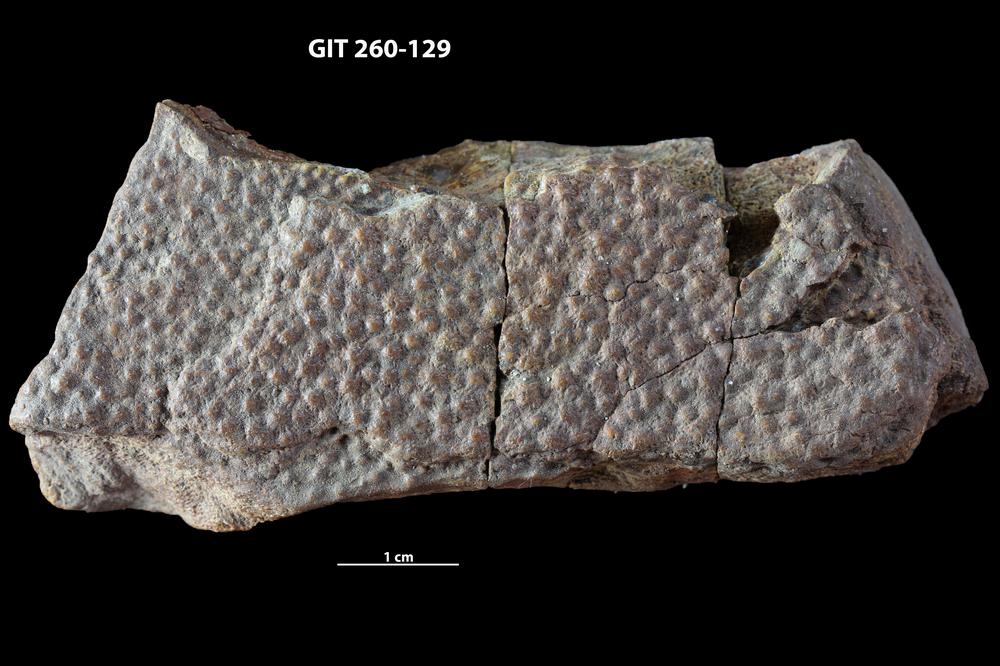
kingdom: Animalia
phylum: Chordata
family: Homostiidae
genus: Homostius
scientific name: Homostius
